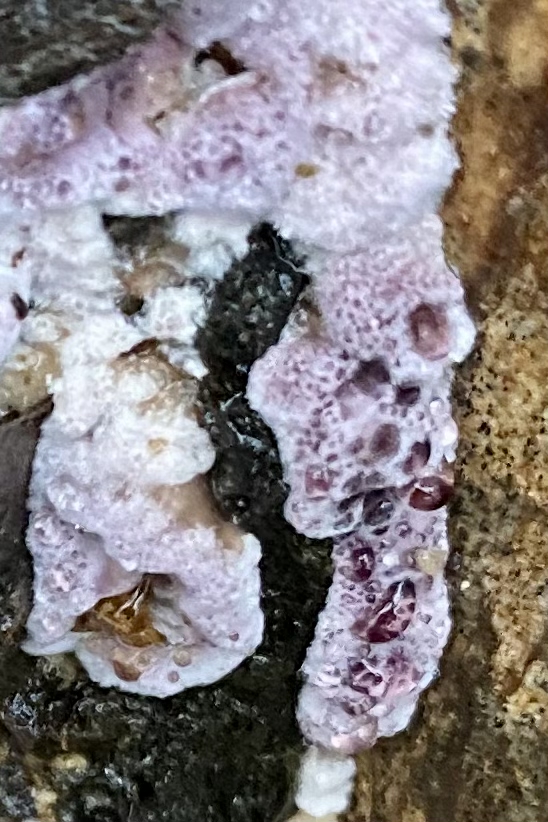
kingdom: Fungi
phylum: Basidiomycota
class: Agaricomycetes
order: Agaricales
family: Cyphellaceae
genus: Chondrostereum
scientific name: Chondrostereum purpureum
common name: purpurlædersvamp
